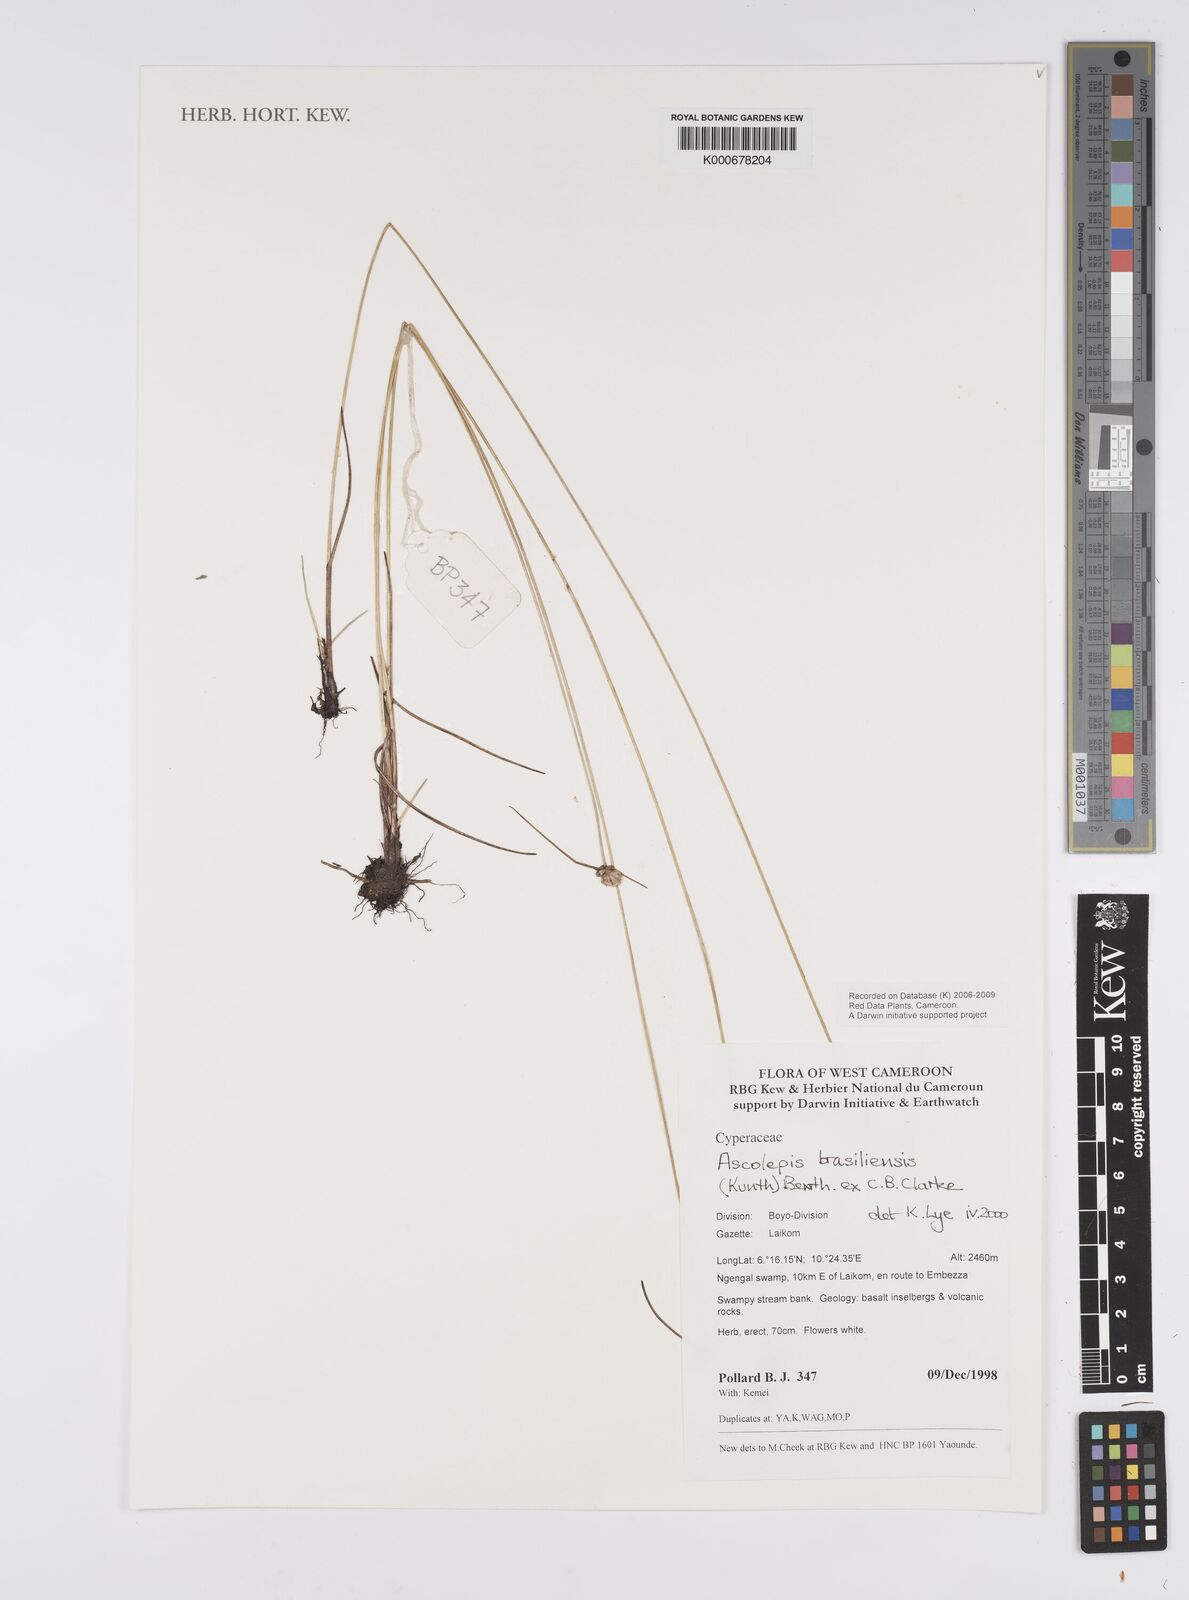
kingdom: Plantae
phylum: Tracheophyta
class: Liliopsida
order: Poales
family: Cyperaceae
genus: Cyperus
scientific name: Cyperus brasiliensis
